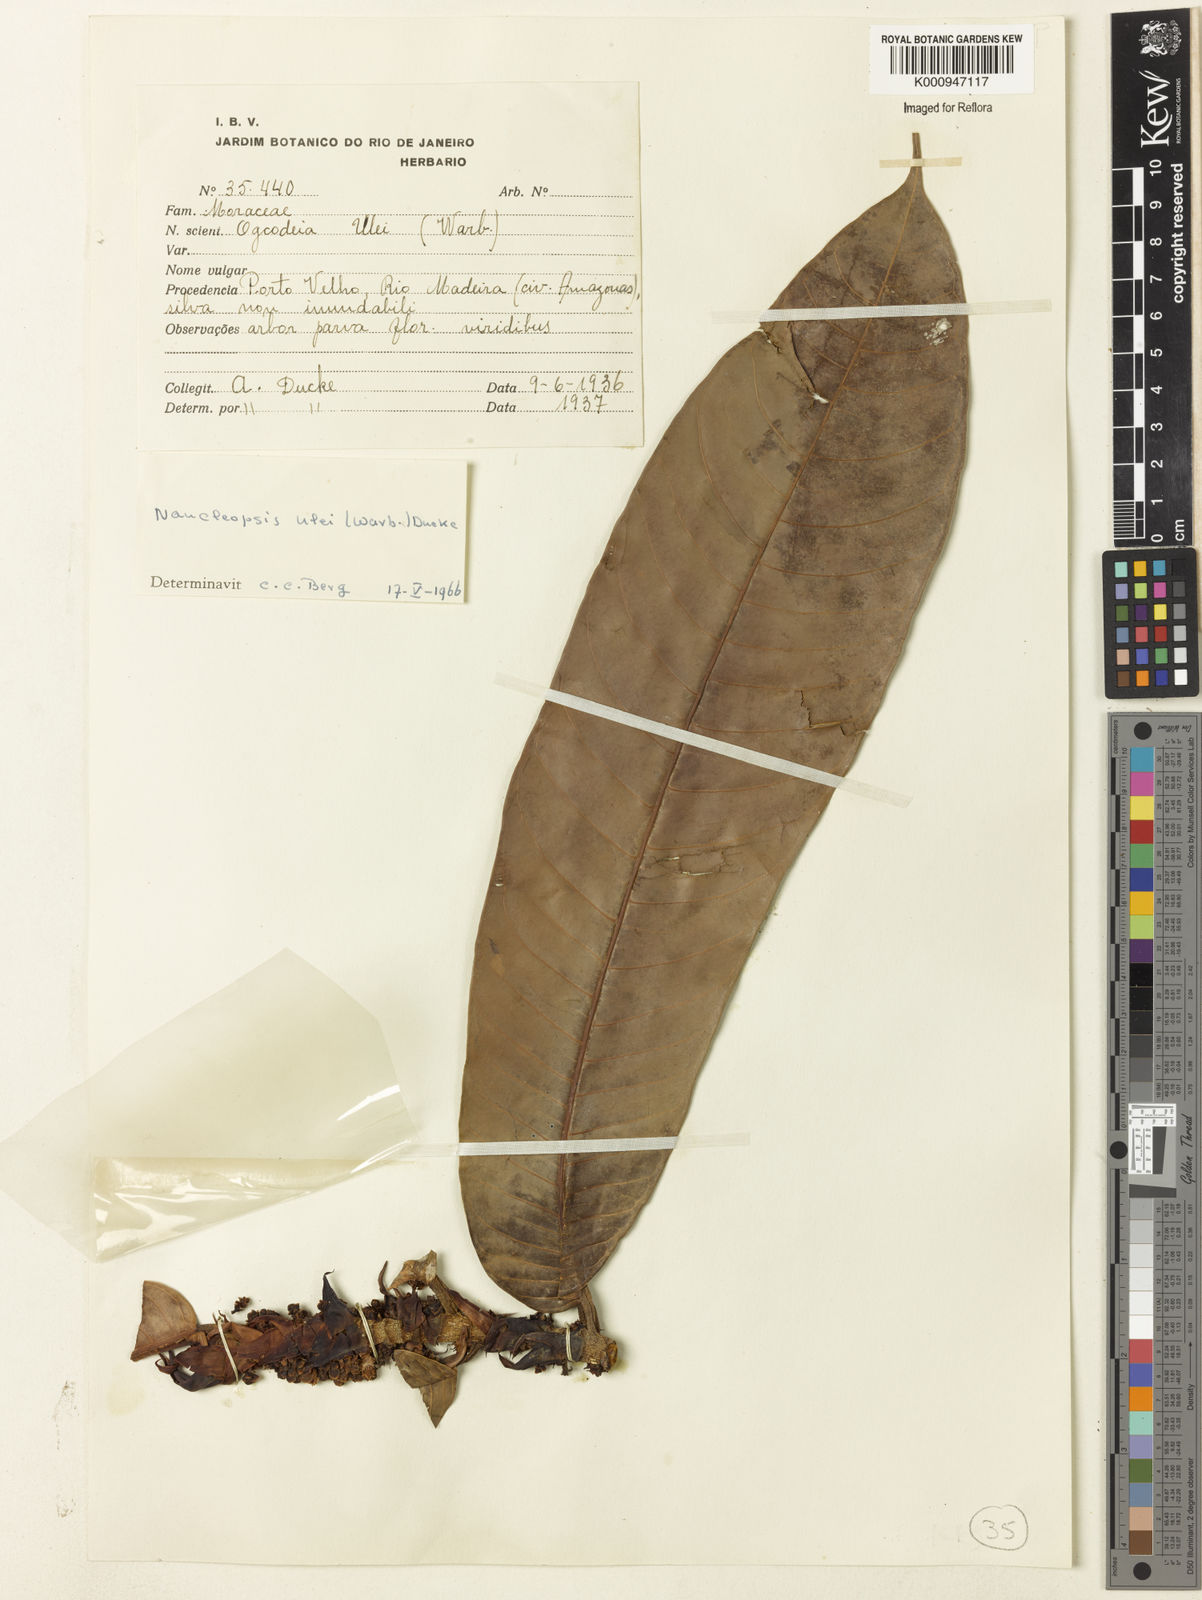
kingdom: Plantae
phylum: Tracheophyta
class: Magnoliopsida
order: Rosales
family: Moraceae
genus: Naucleopsis
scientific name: Naucleopsis ulei
